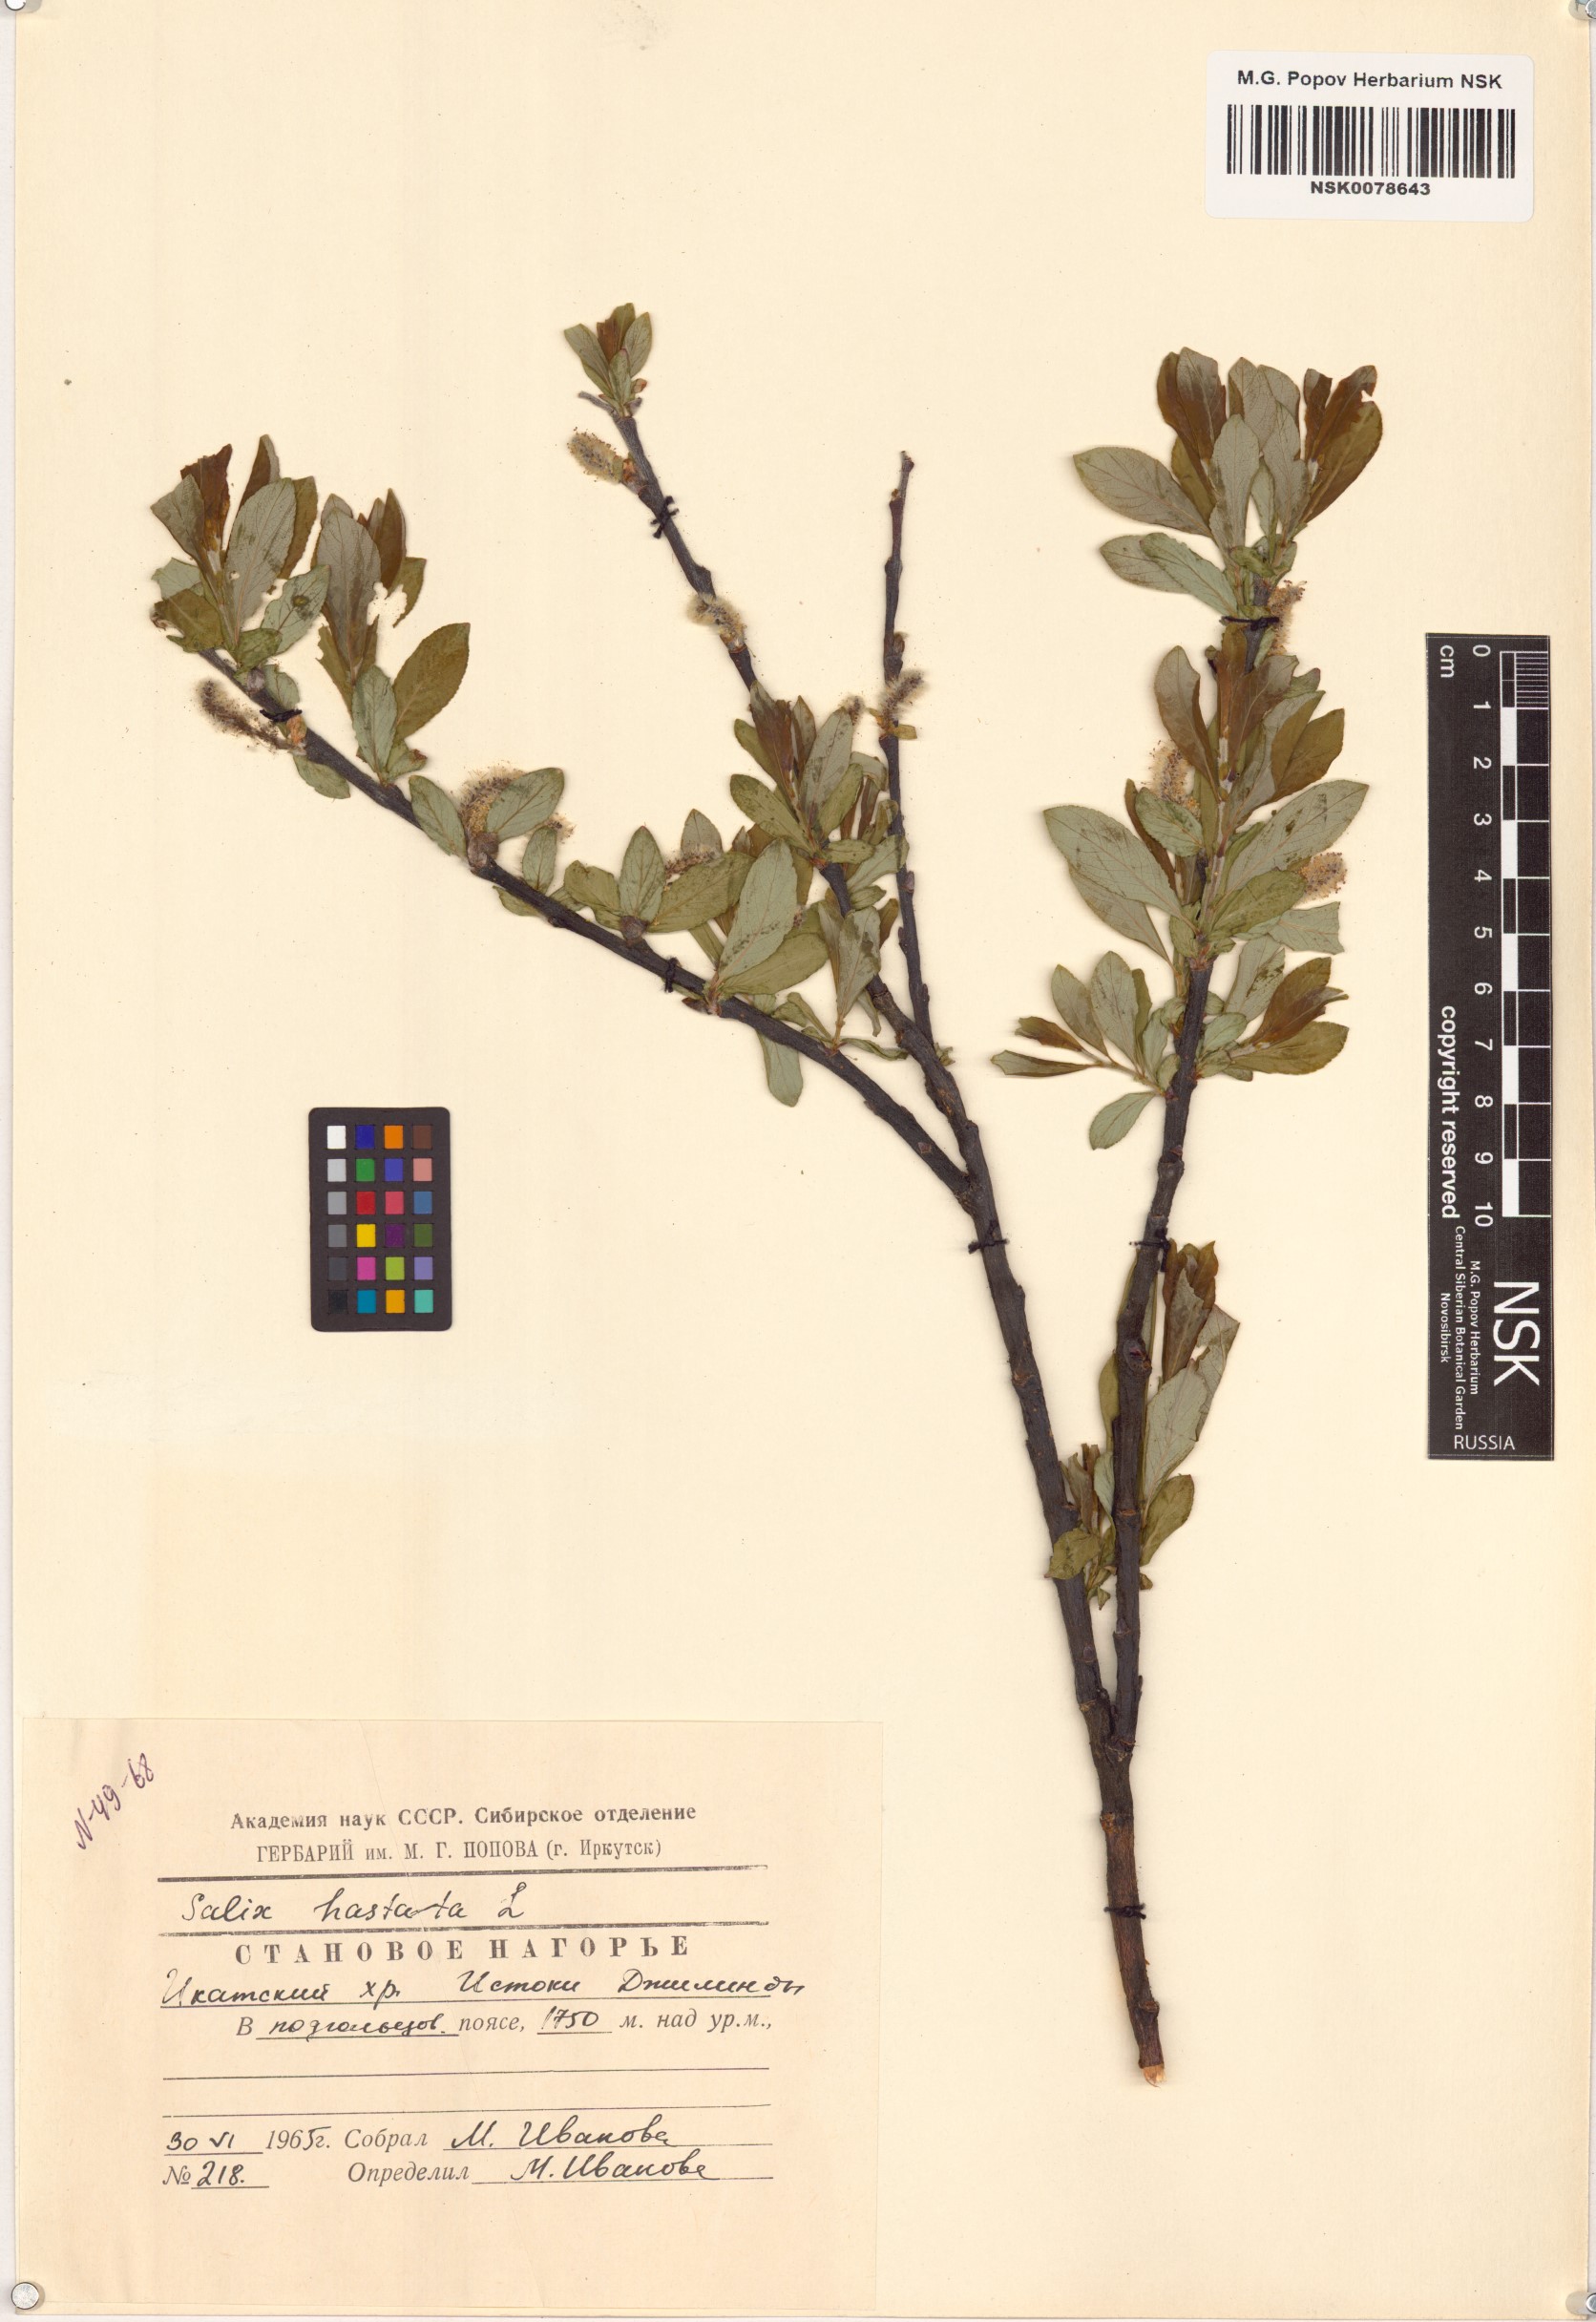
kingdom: Plantae
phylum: Tracheophyta
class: Magnoliopsida
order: Malpighiales
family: Salicaceae
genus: Salix
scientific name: Salix hastata
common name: Halberd willow
